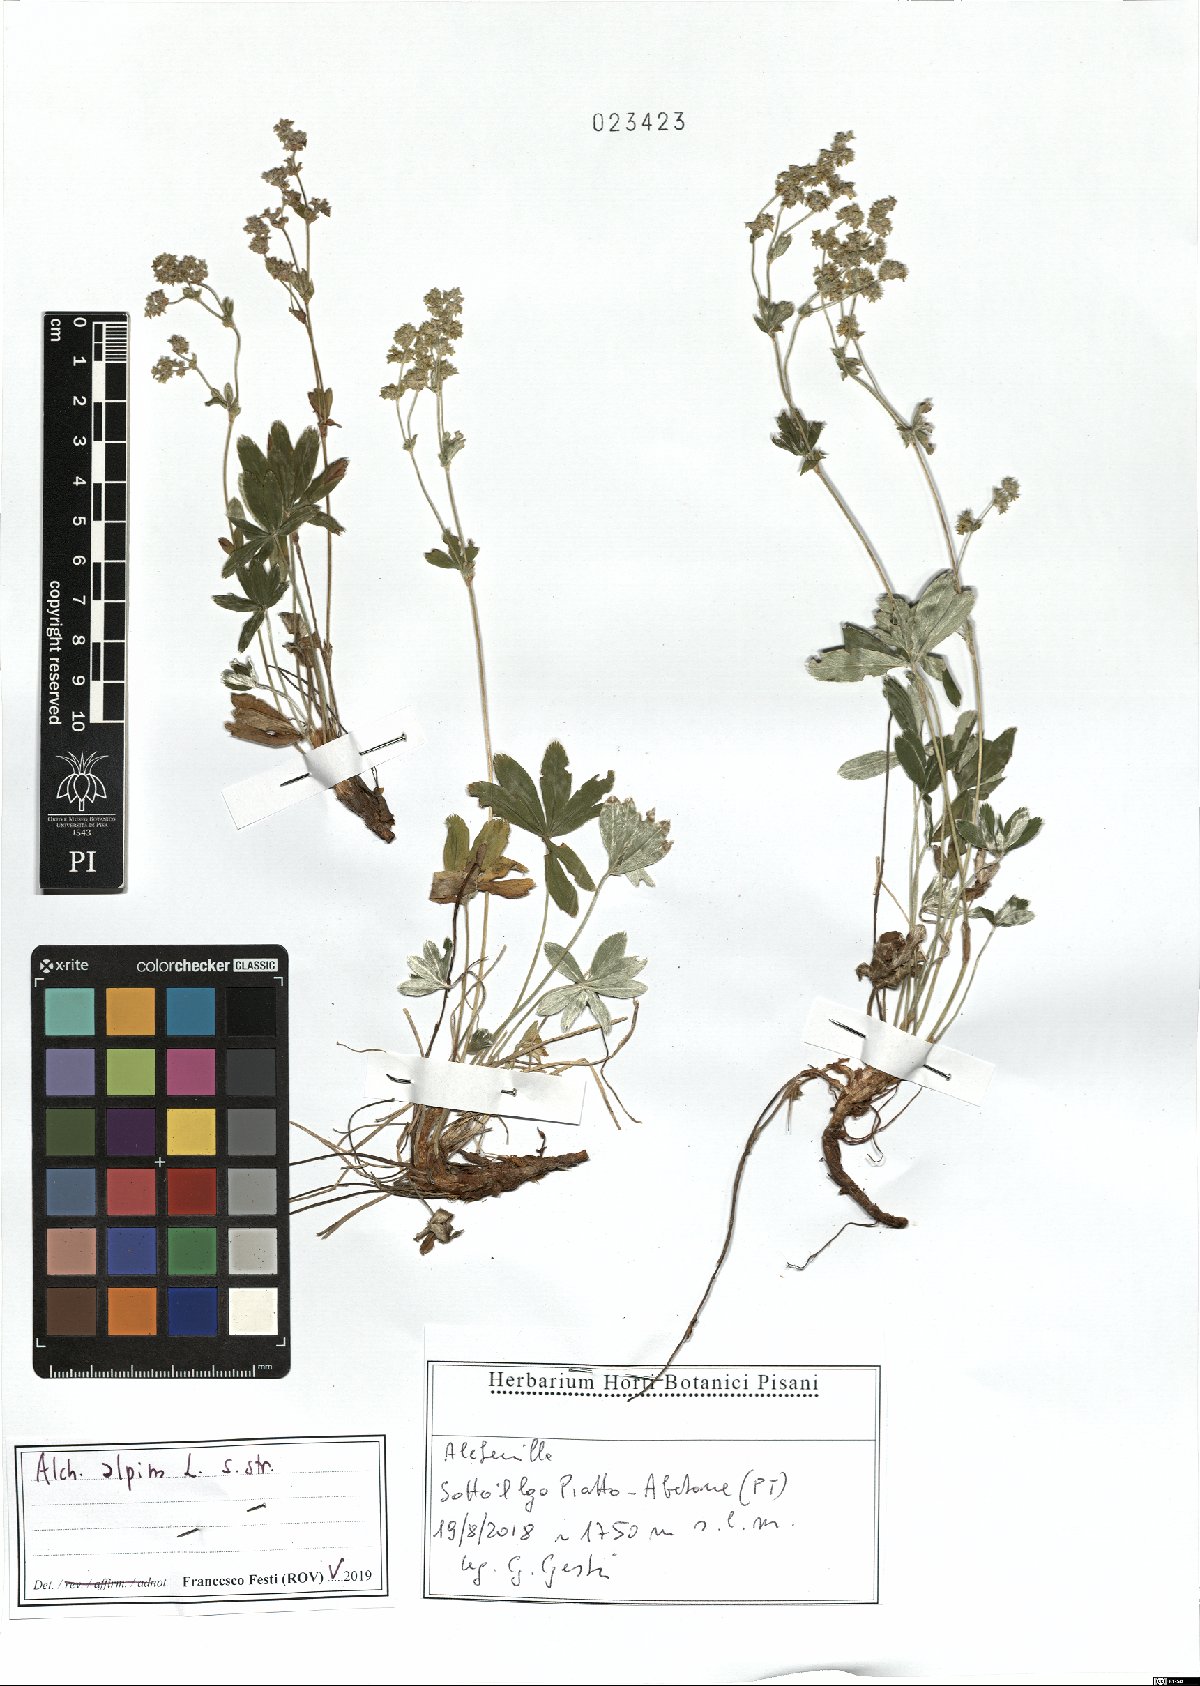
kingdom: Plantae
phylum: Tracheophyta
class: Magnoliopsida
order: Rosales
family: Rosaceae
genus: Alchemilla
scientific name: Alchemilla alpina
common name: Alpine lady's-mantle
